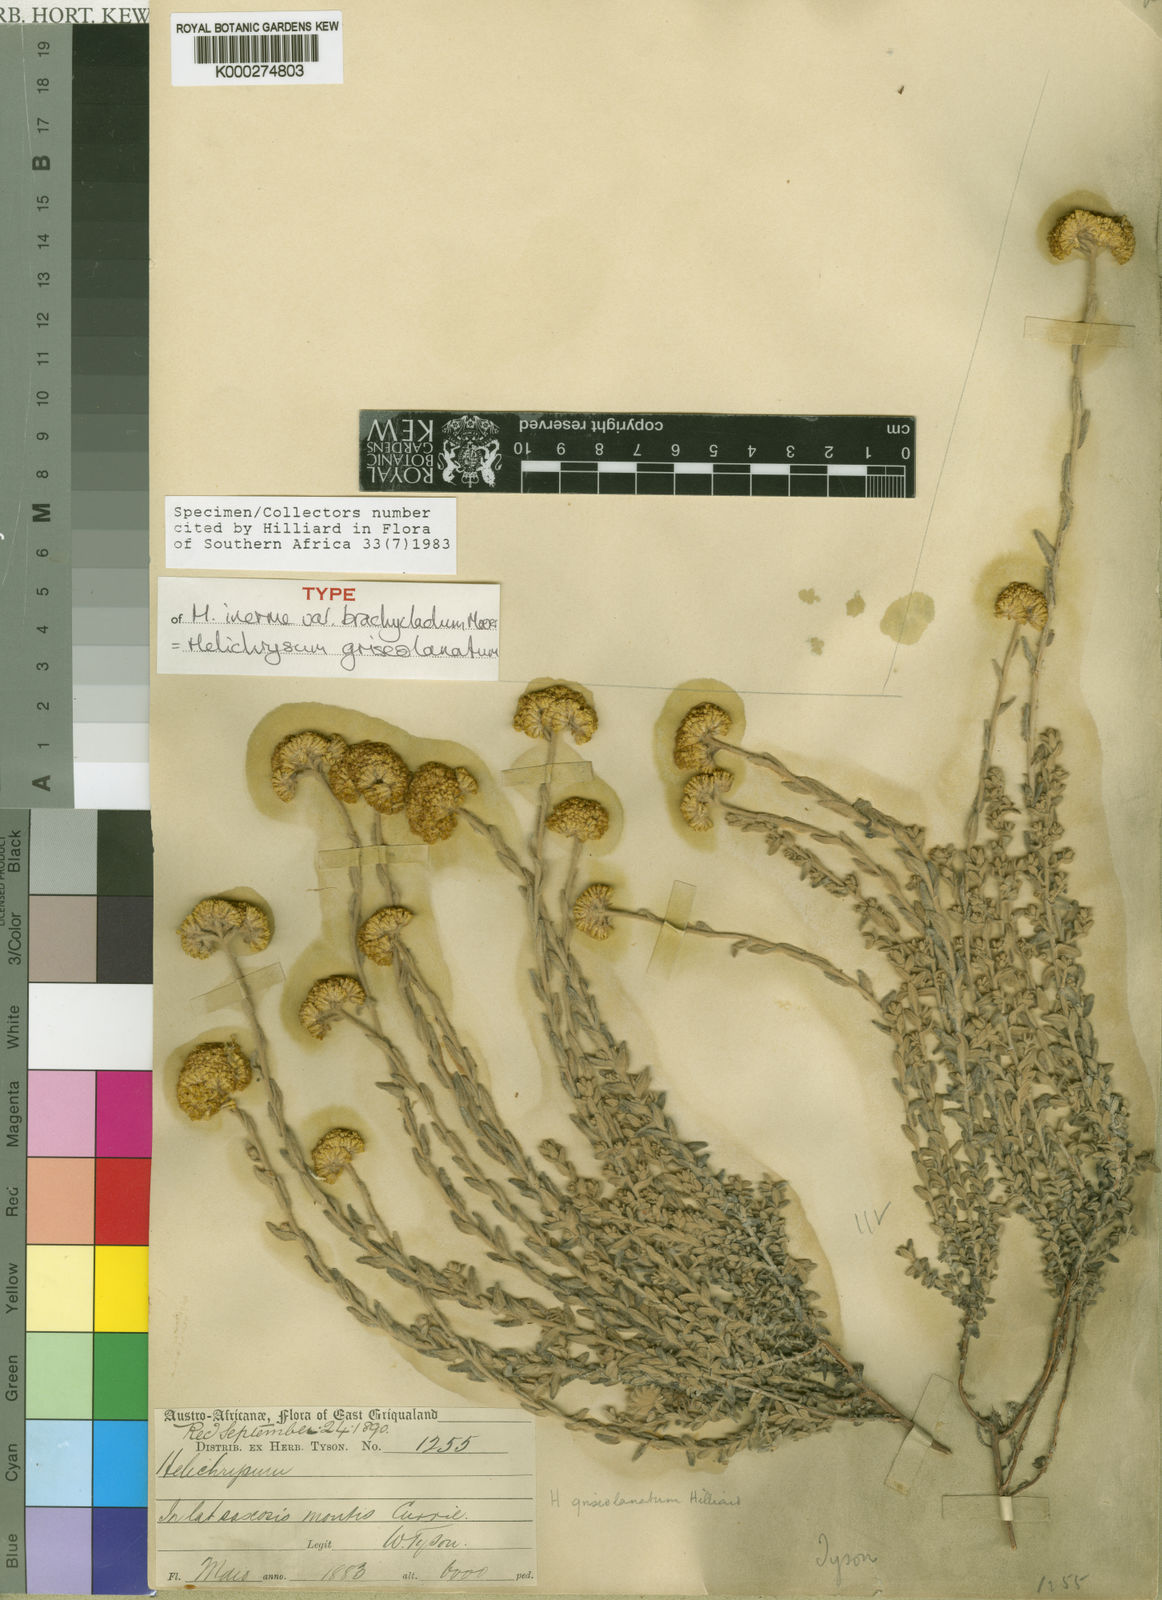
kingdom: Plantae
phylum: Tracheophyta
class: Magnoliopsida
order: Asterales
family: Asteraceae
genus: Helichrysum
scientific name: Helichrysum griseolanatum
